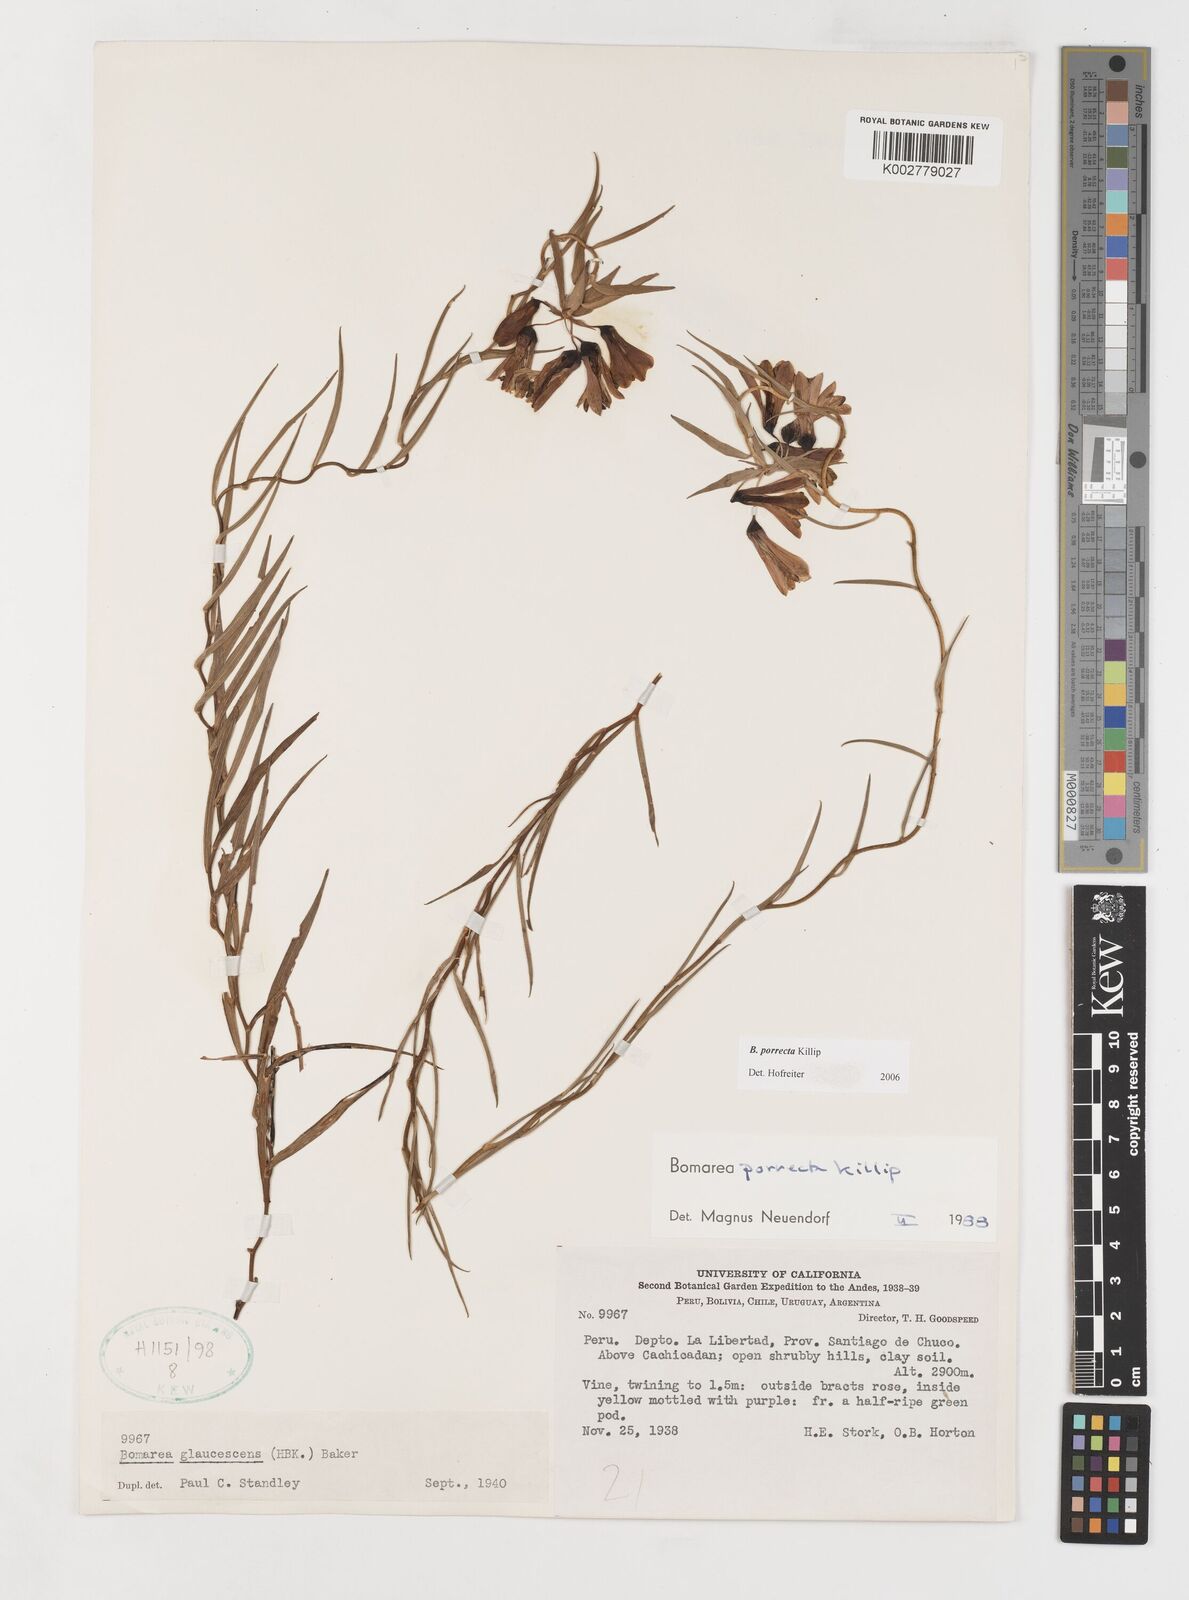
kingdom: Plantae
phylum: Tracheophyta
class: Liliopsida
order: Liliales
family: Alstroemeriaceae
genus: Bomarea
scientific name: Bomarea porrecta
